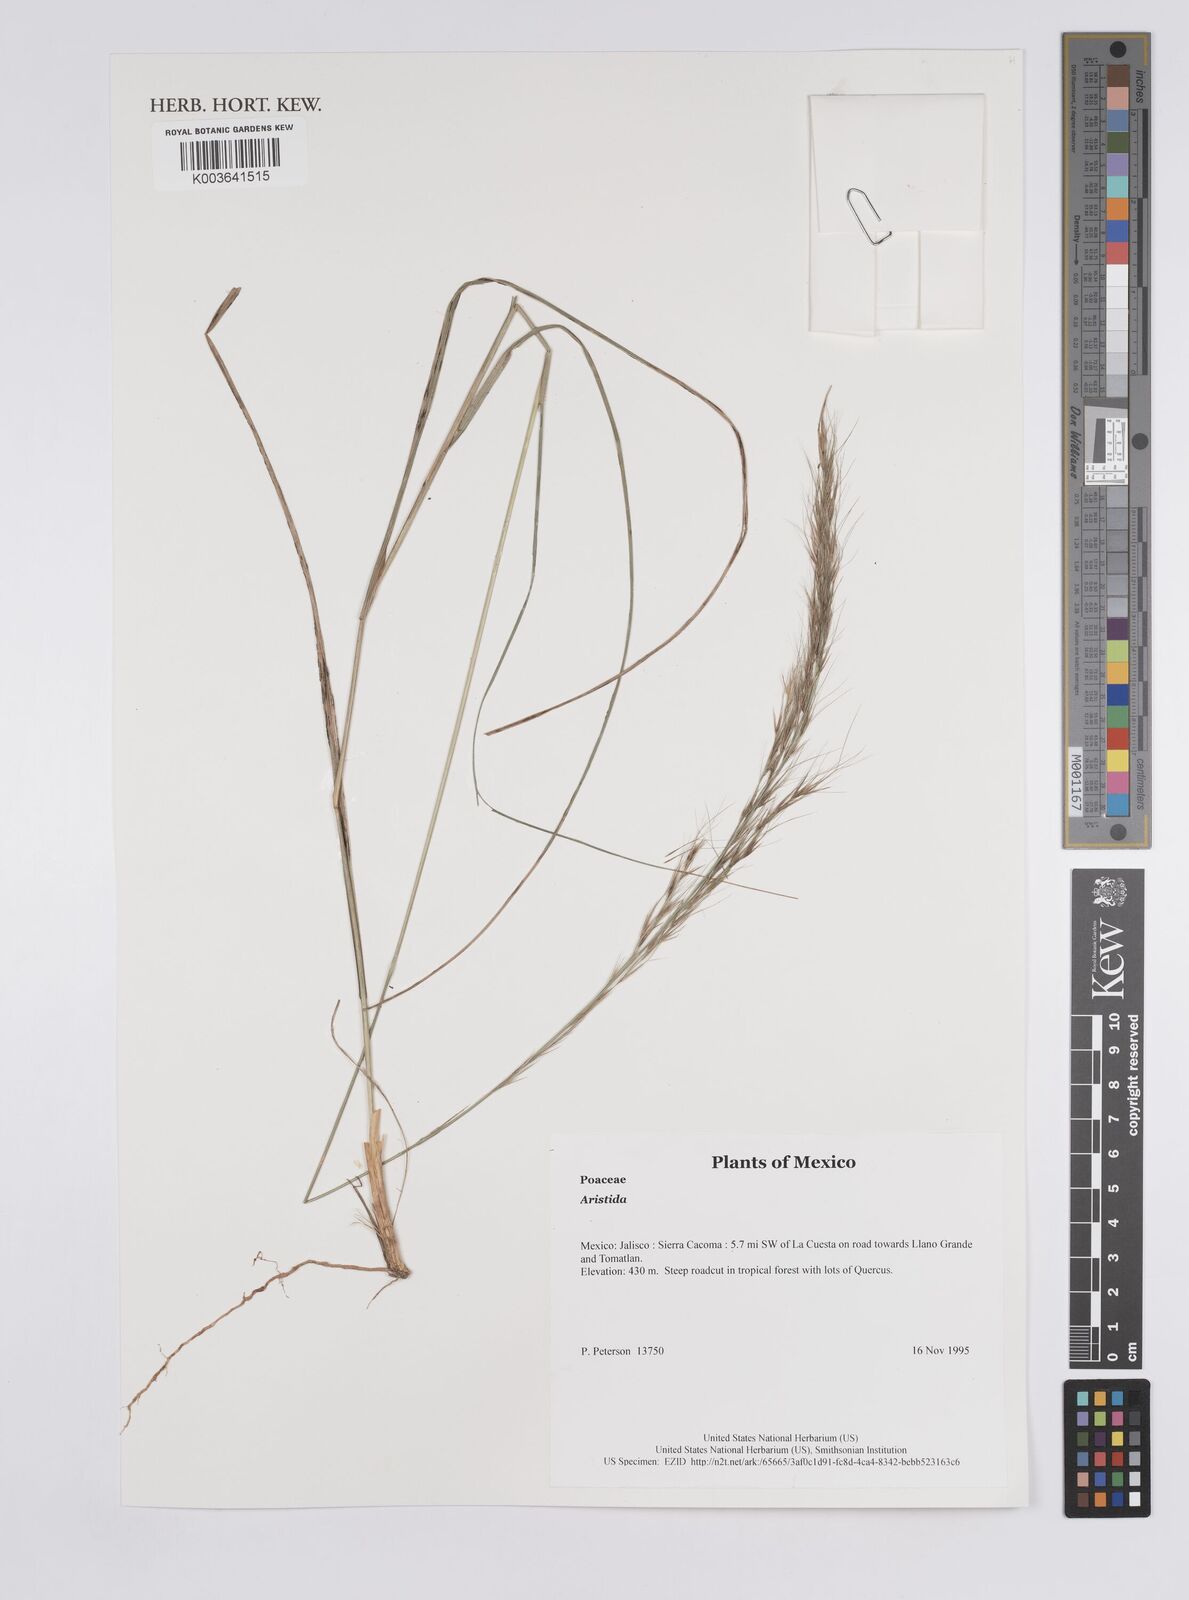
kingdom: Plantae
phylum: Tracheophyta
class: Liliopsida
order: Poales
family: Poaceae
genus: Aristida
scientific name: Aristida
